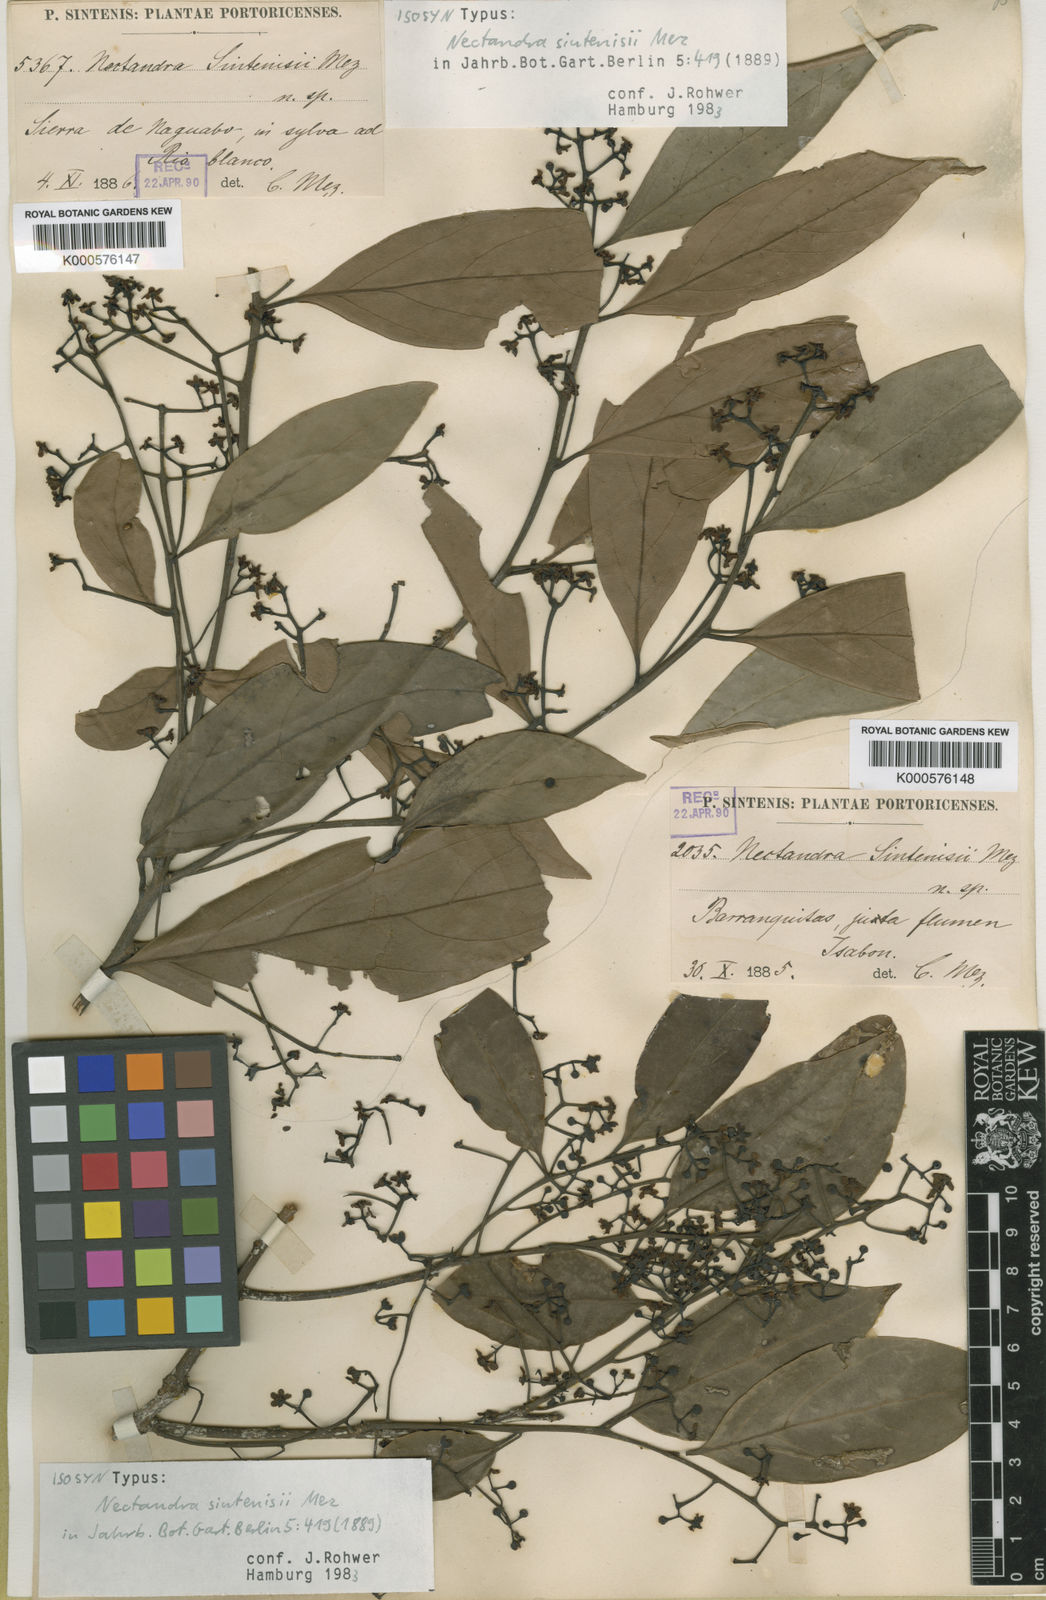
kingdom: Plantae
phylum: Tracheophyta
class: Magnoliopsida
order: Laurales
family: Lauraceae
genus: Nectandra
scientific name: Nectandra turbacensis
